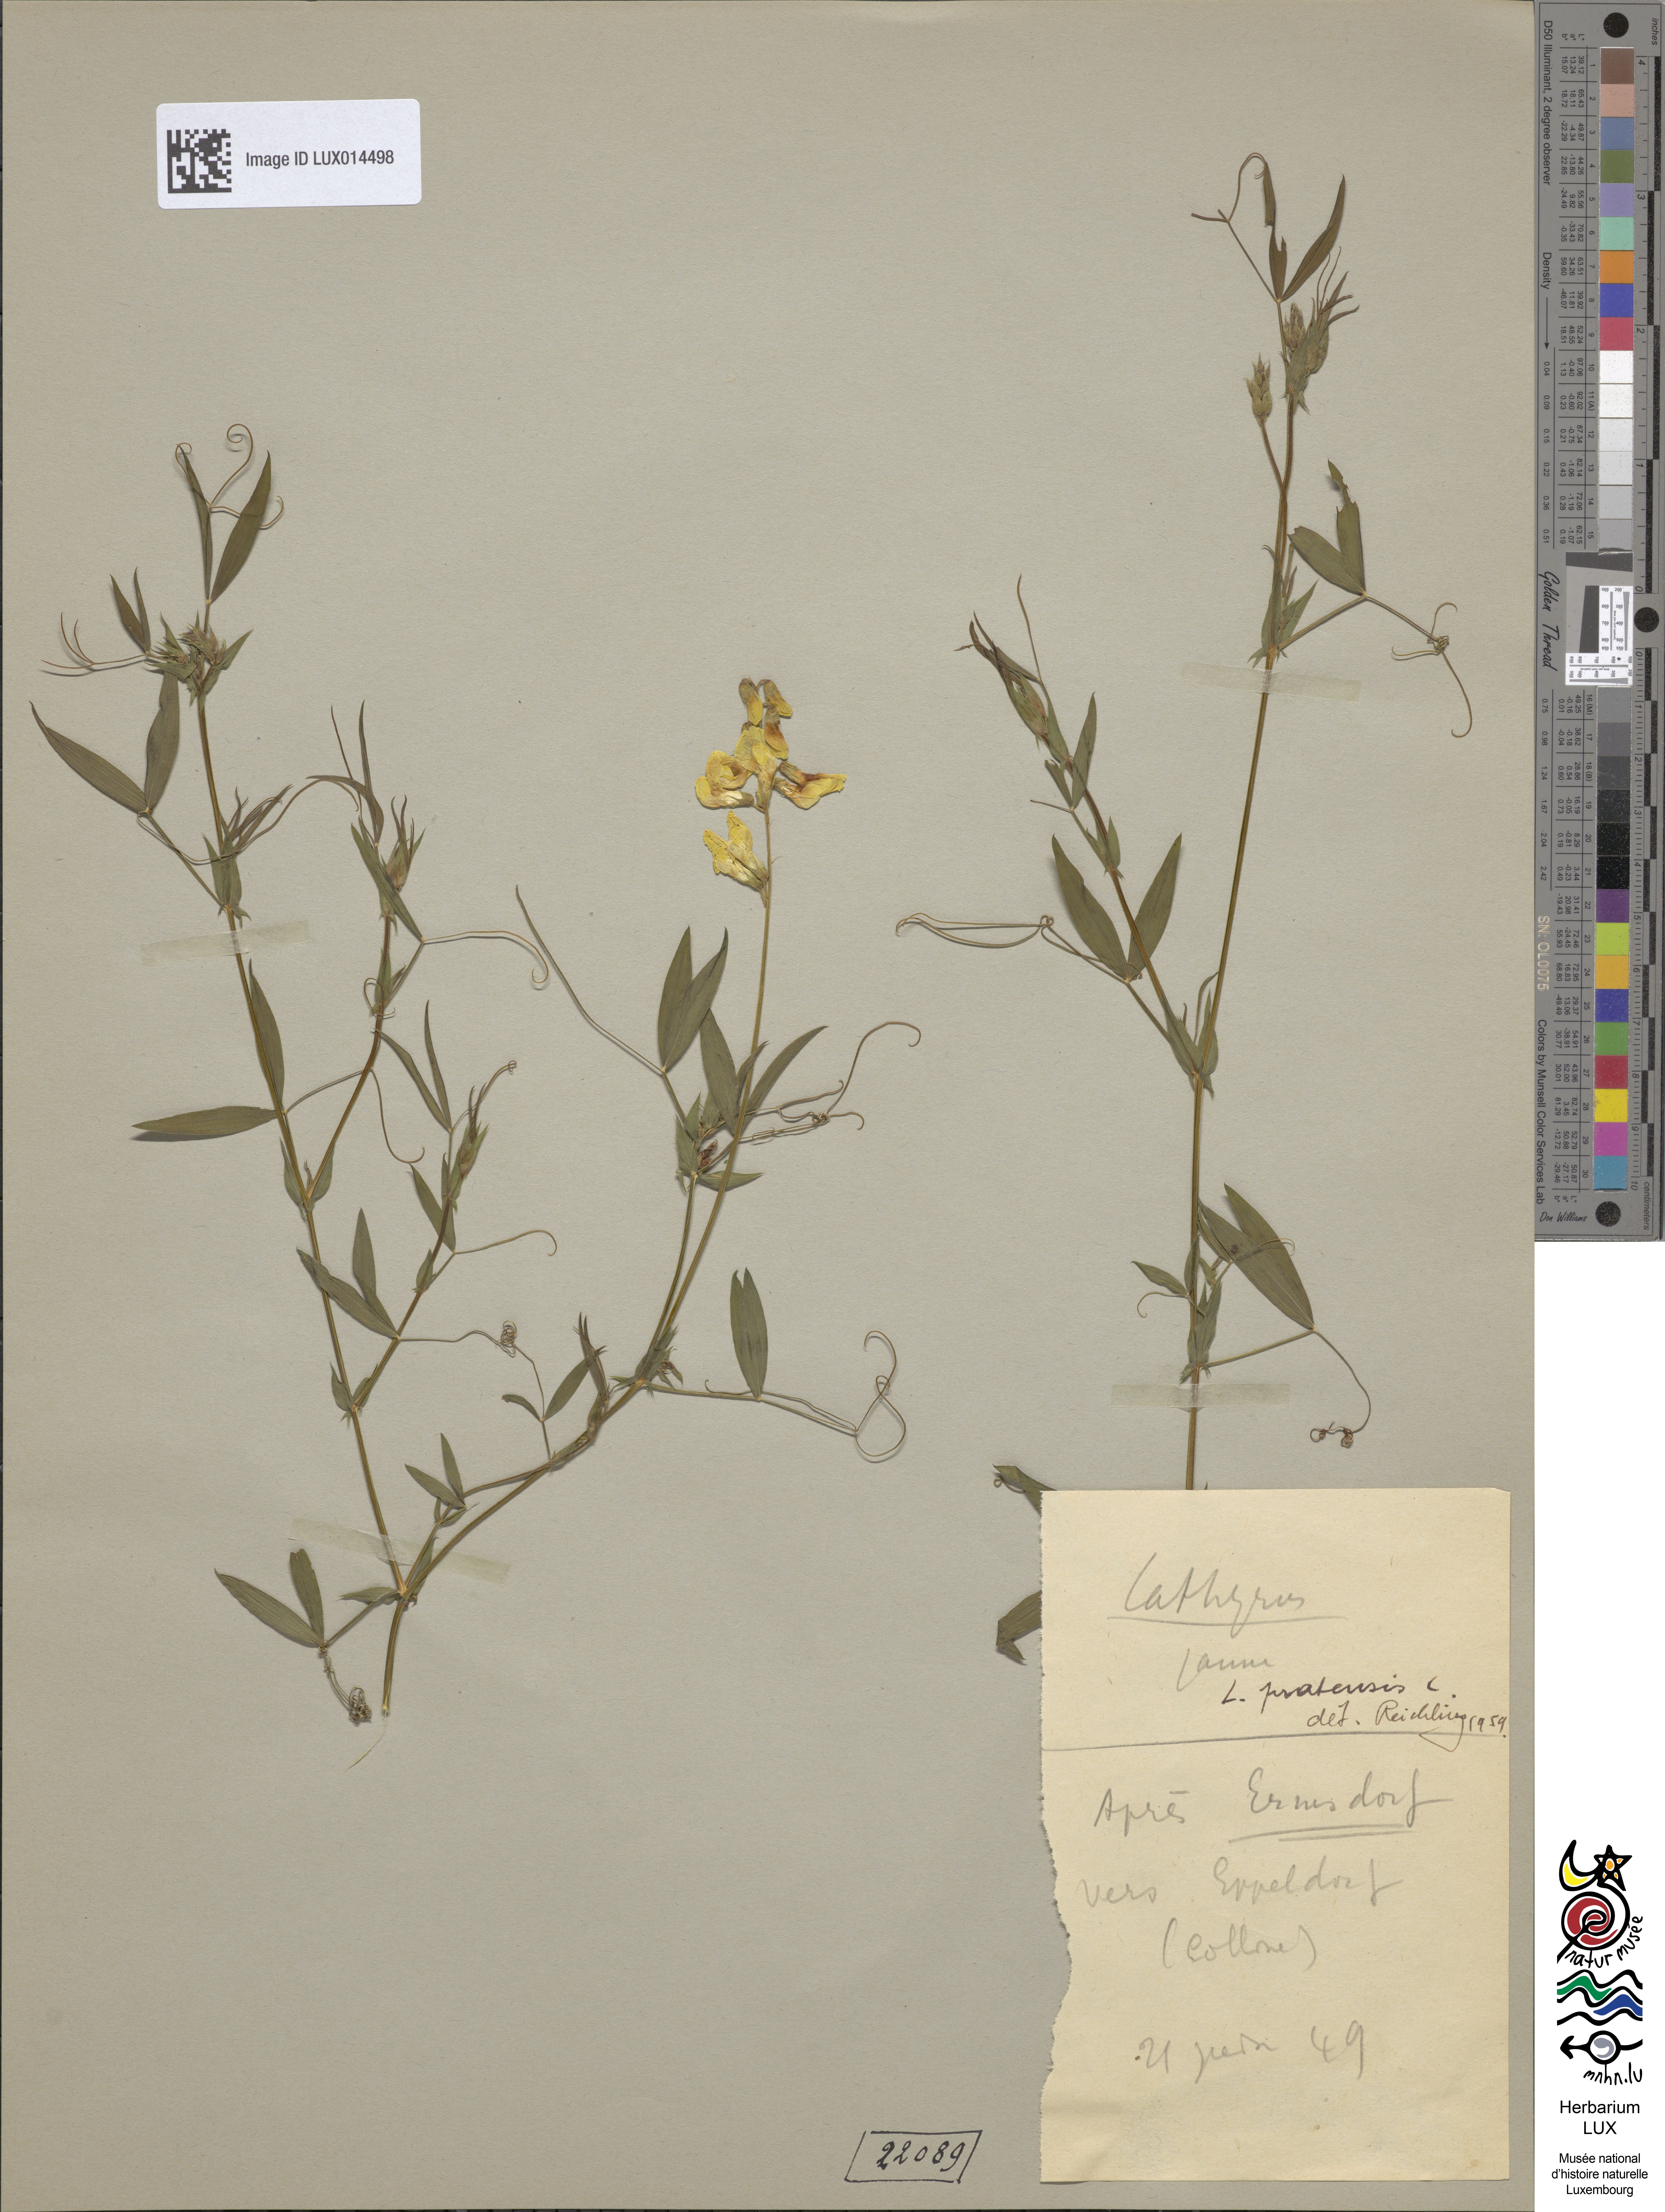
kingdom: Plantae
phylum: Tracheophyta
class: Magnoliopsida
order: Fabales
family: Fabaceae
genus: Lathyrus
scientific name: Lathyrus pratensis
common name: Meadow vetchling
